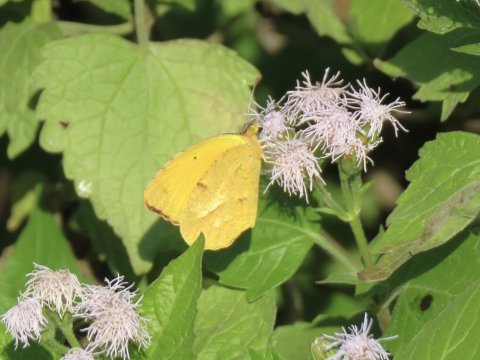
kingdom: Animalia
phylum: Arthropoda
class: Insecta
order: Lepidoptera
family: Pieridae
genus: Abaeis
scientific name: Abaeis nicippe
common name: Sleepy Orange
